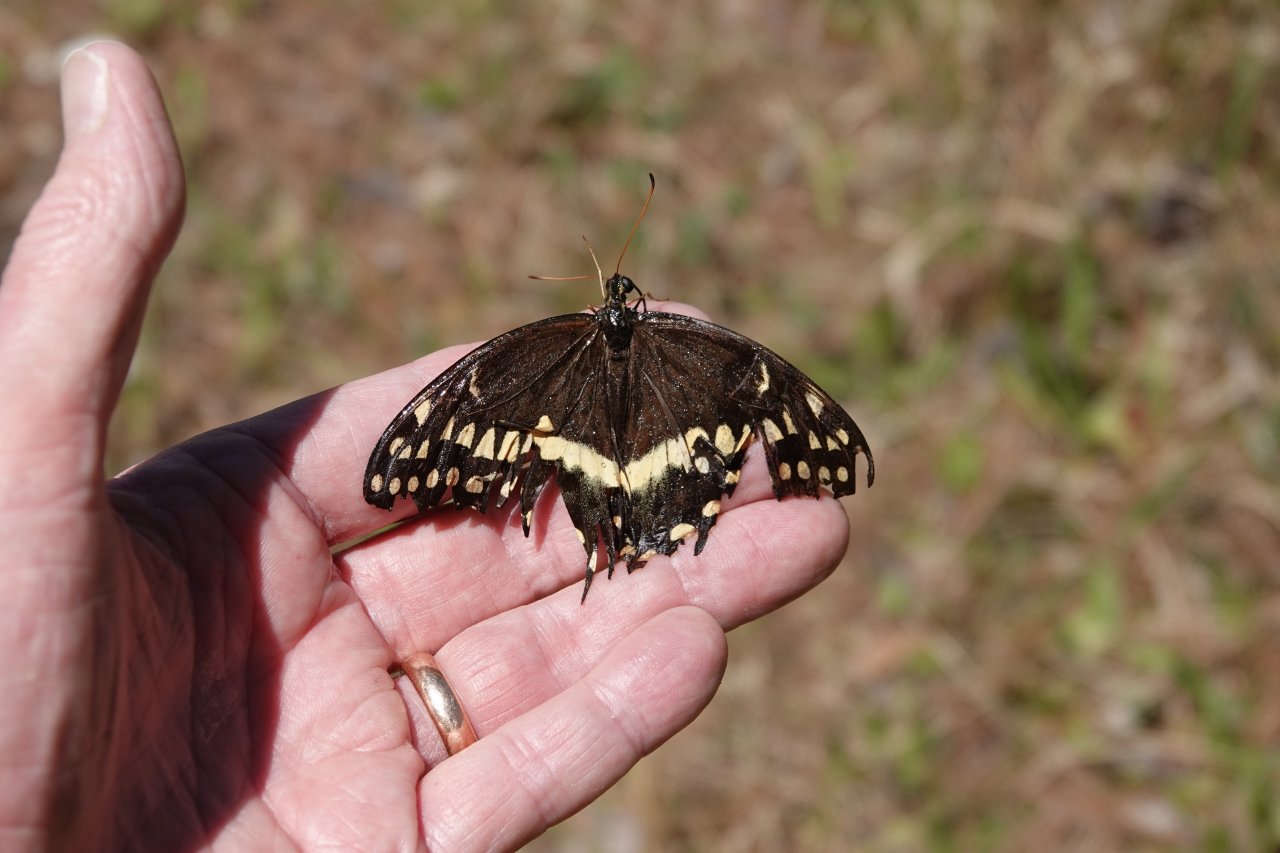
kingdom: Animalia
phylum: Arthropoda
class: Insecta
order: Lepidoptera
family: Papilionidae
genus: Pterourus
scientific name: Pterourus palamedes
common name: Palamedes Swallowtail
